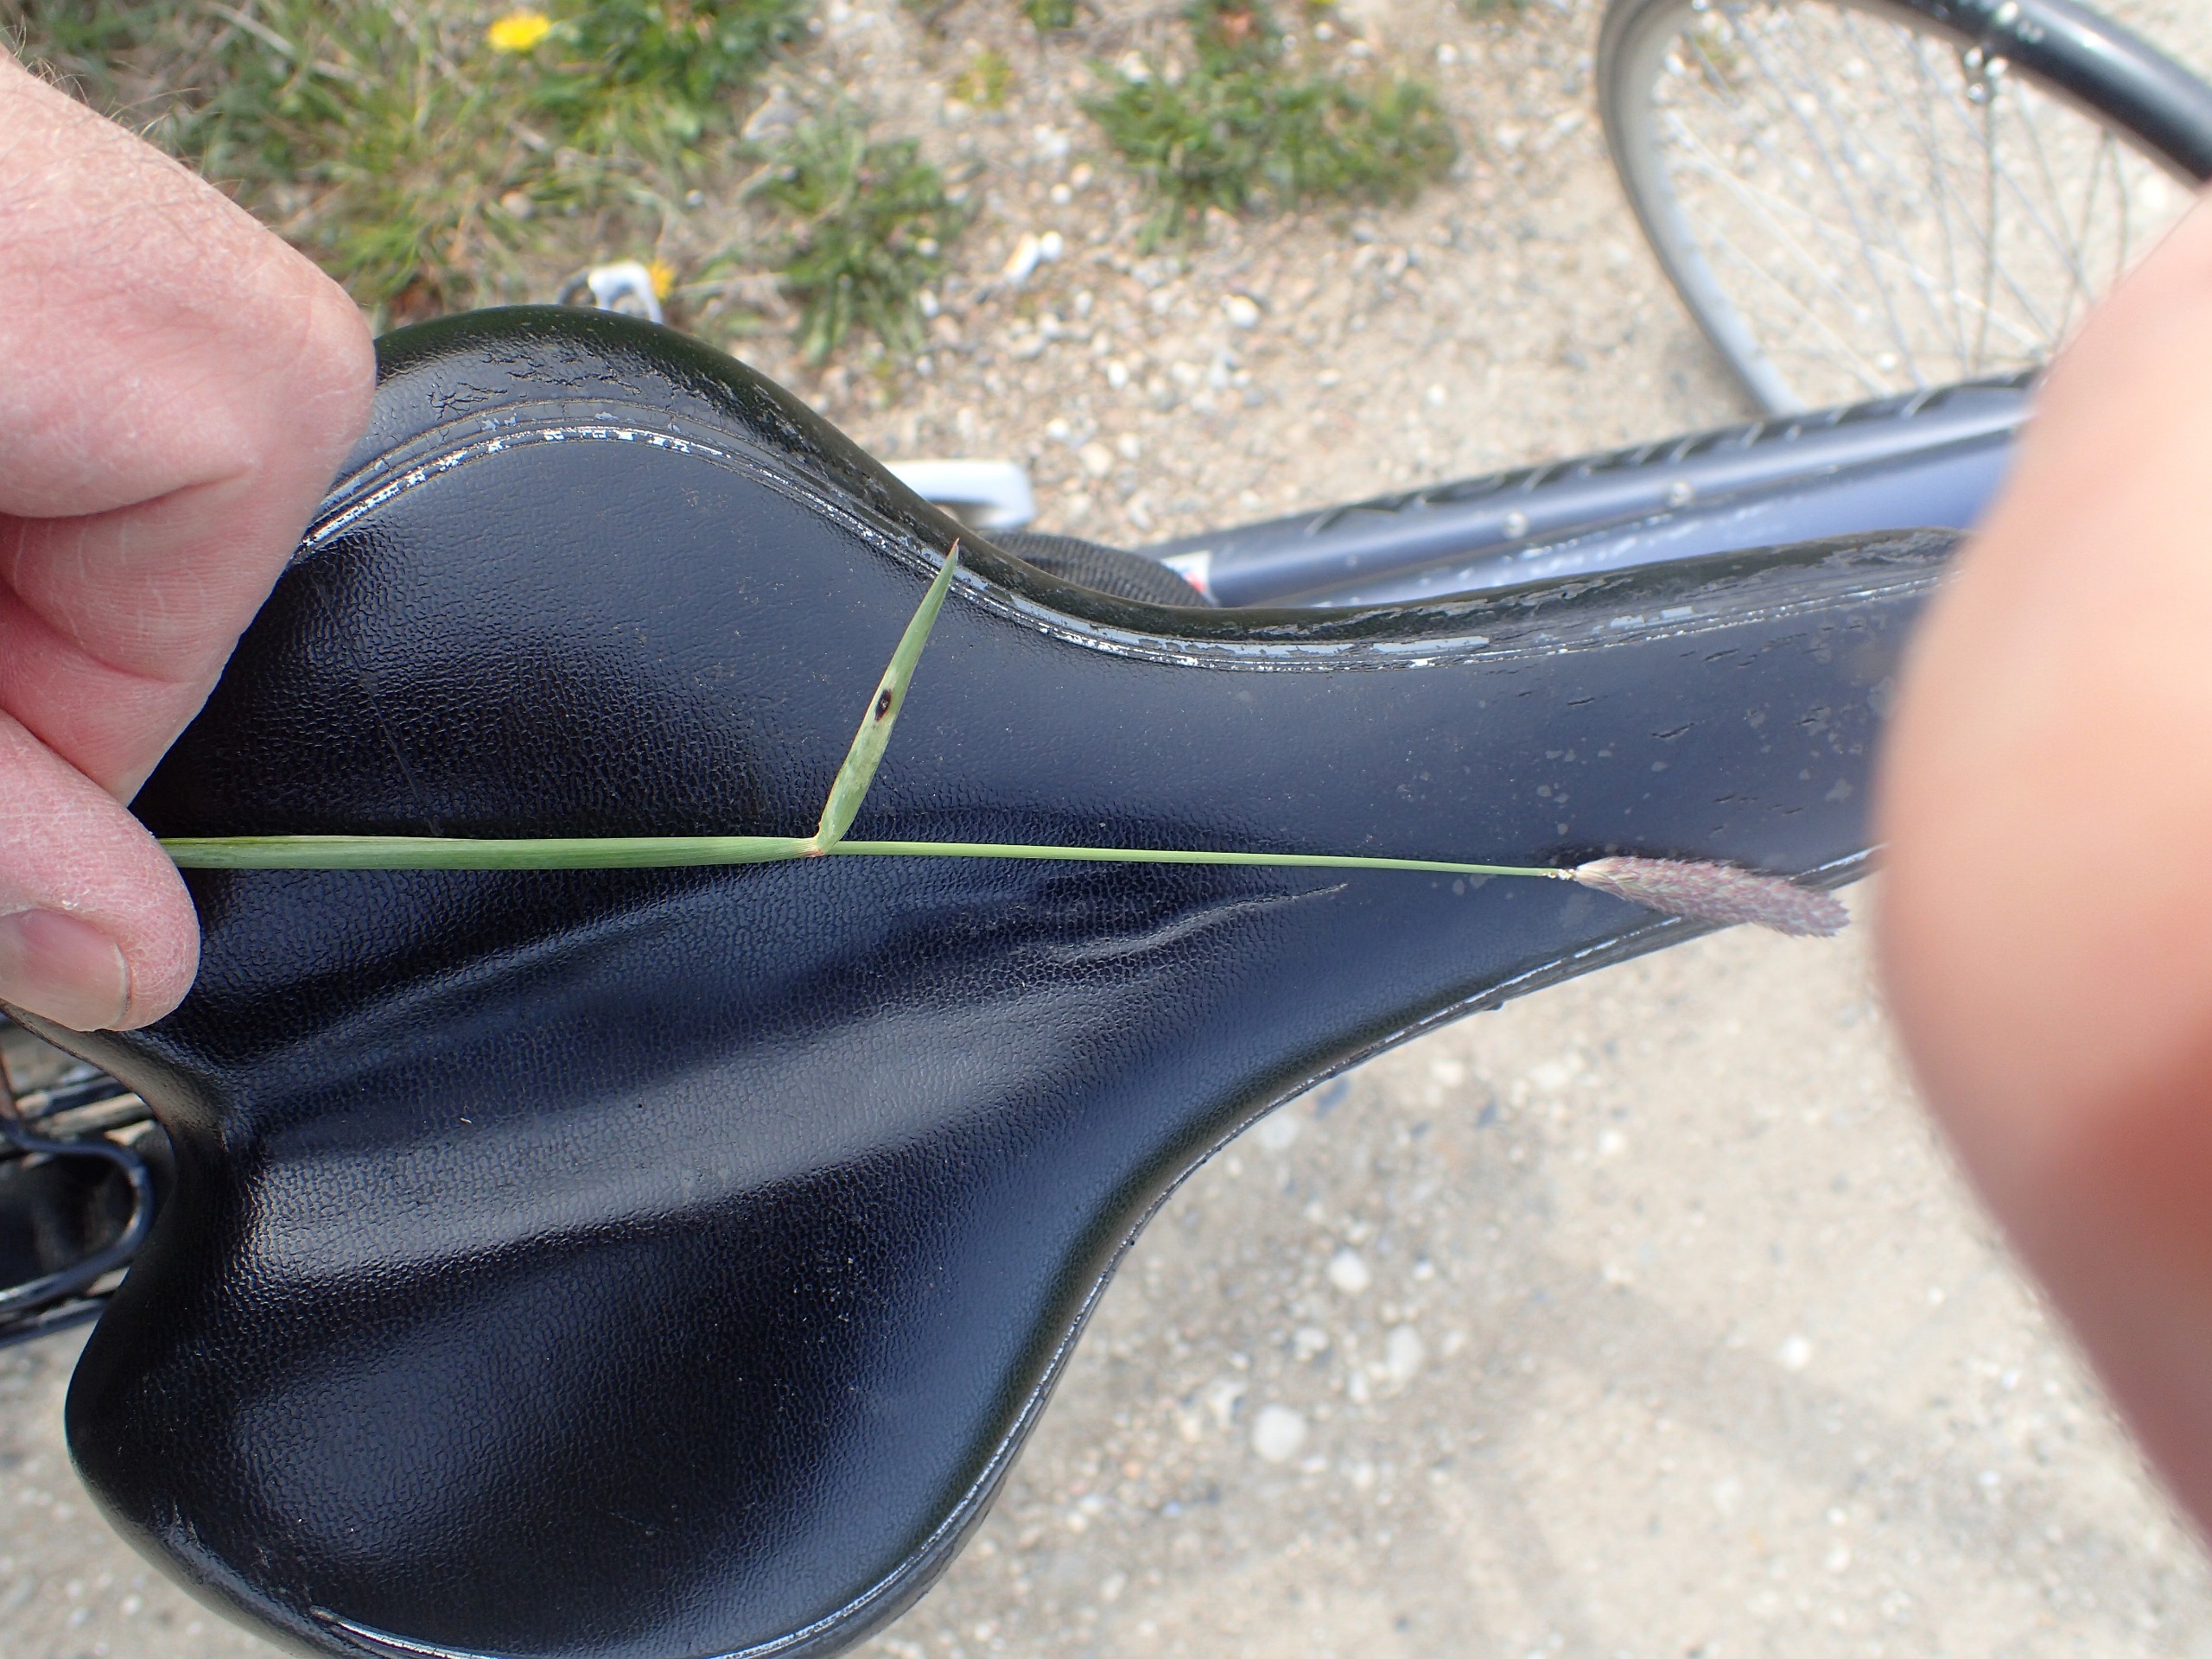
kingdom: Plantae
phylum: Tracheophyta
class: Liliopsida
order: Poales
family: Poaceae
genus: Alopecurus
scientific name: Alopecurus pratensis
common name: Eng-rævehale
